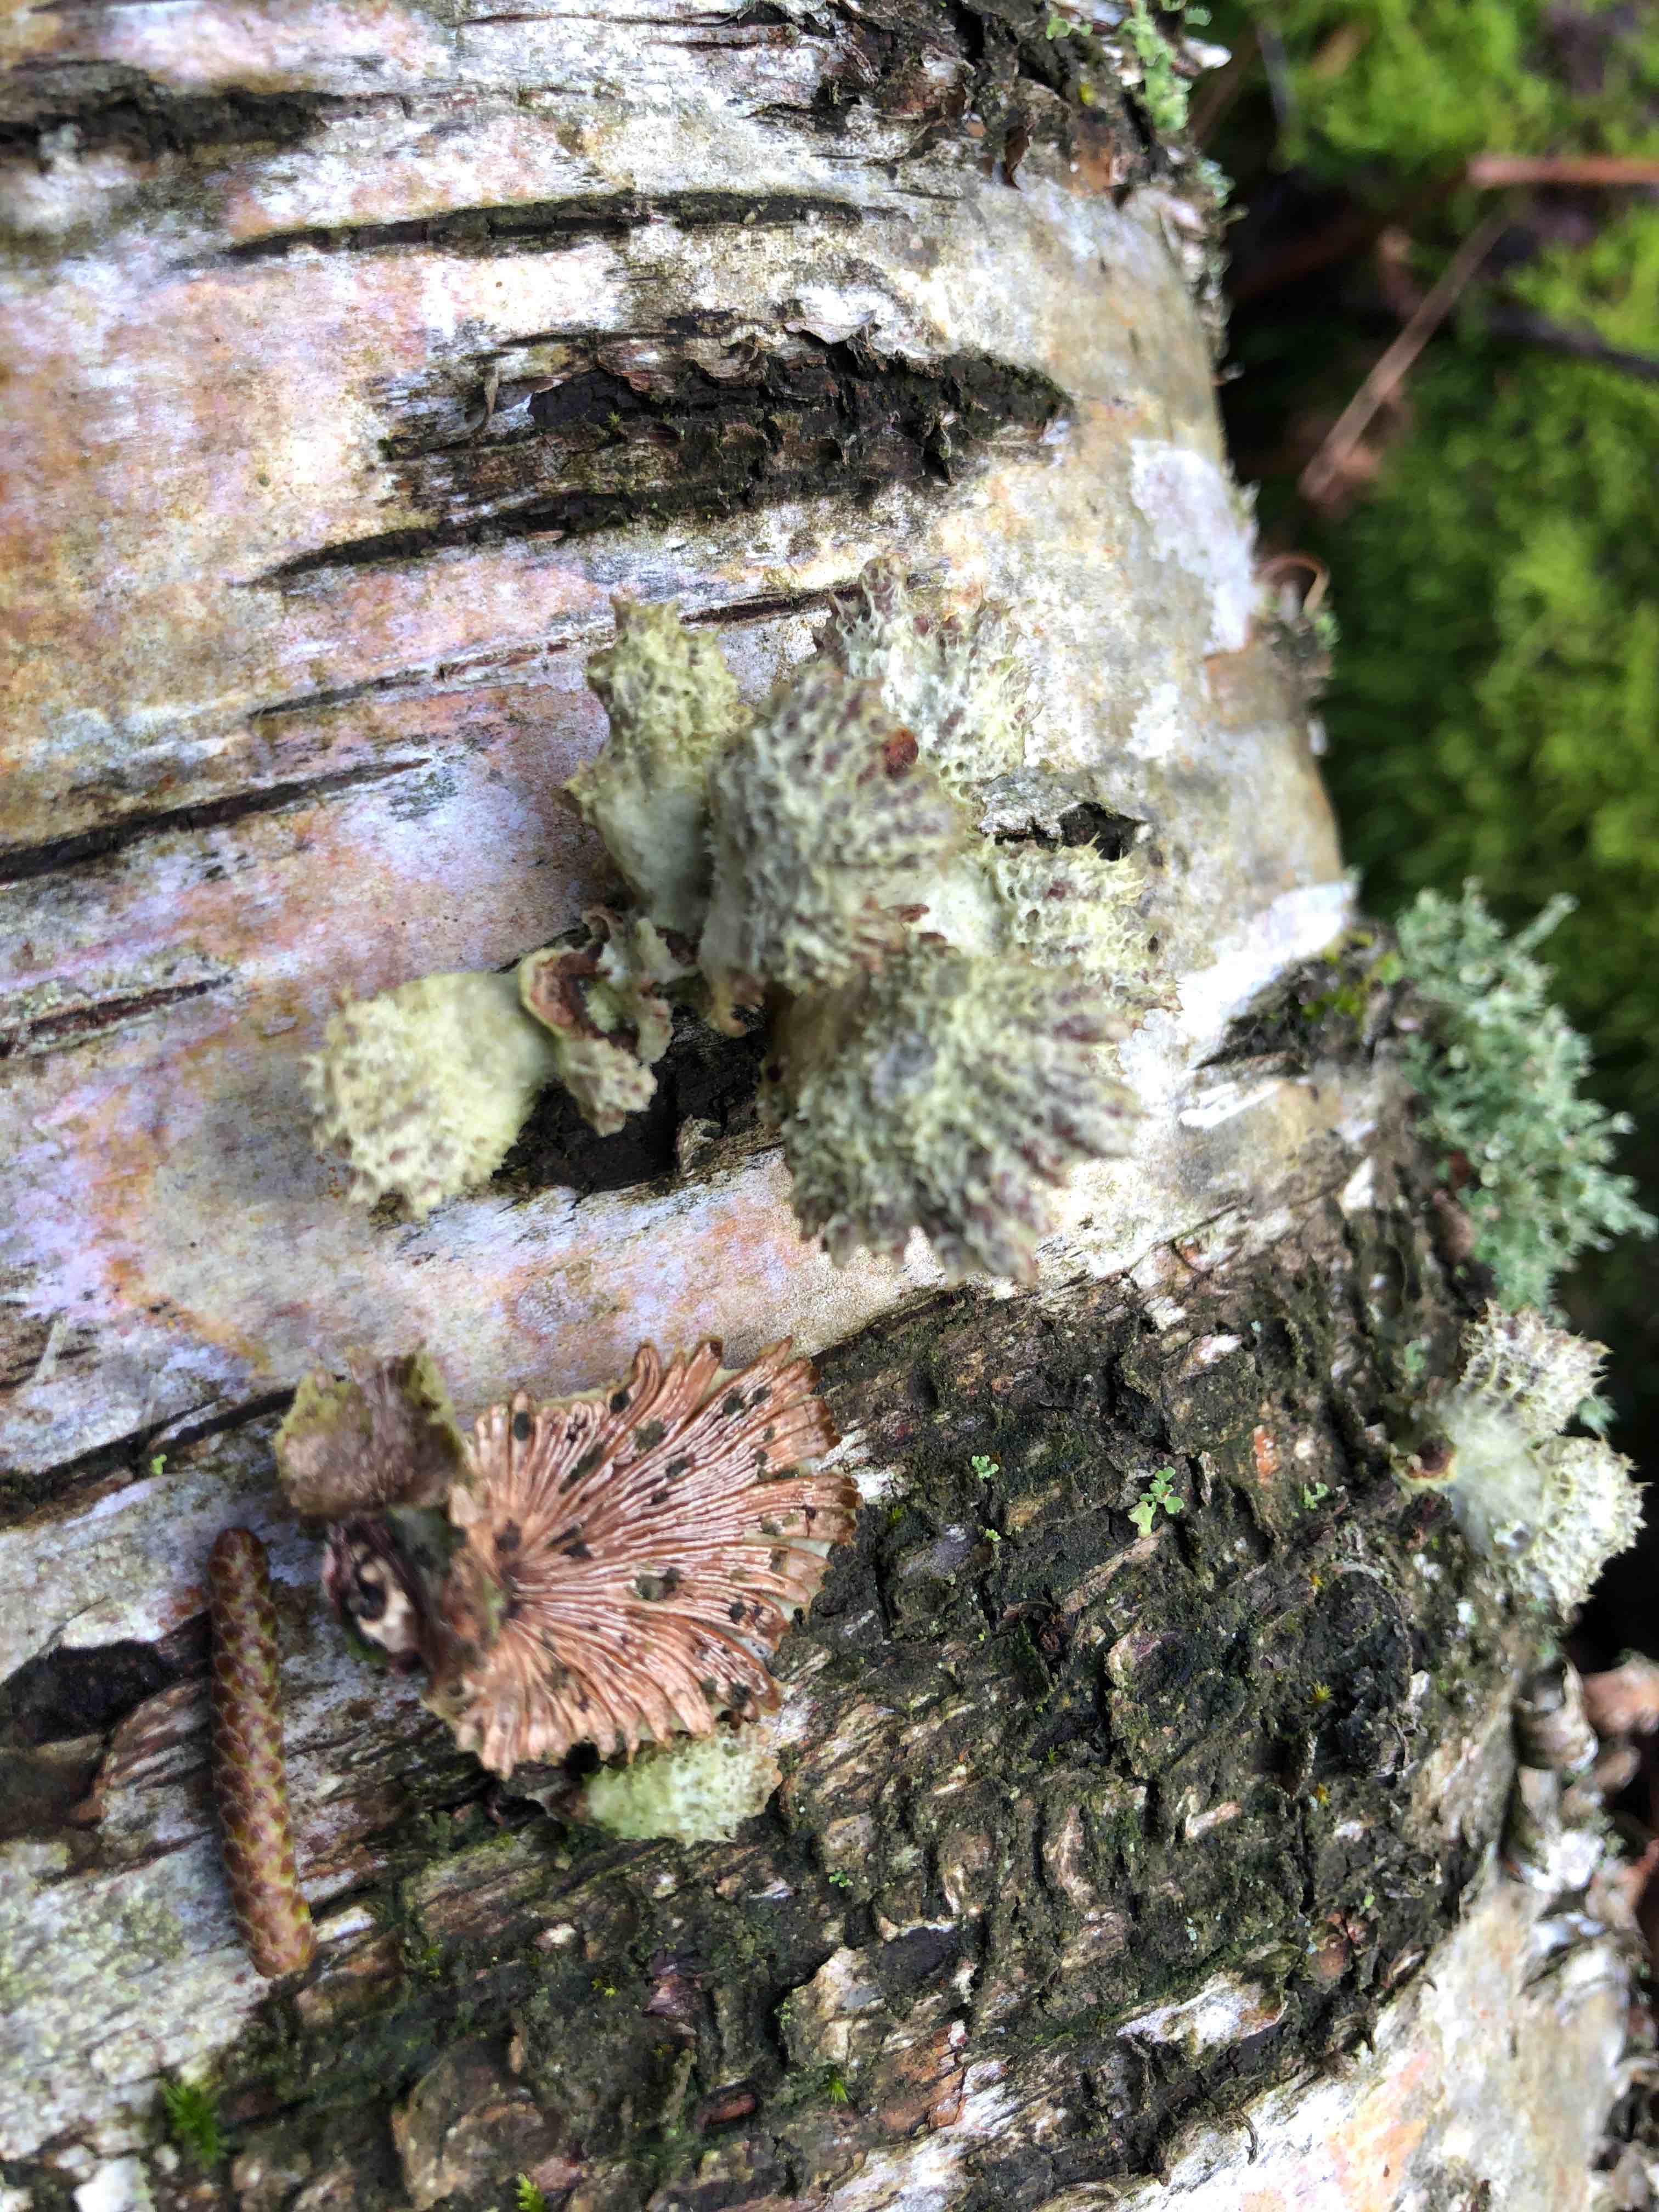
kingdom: Fungi
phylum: Basidiomycota
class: Agaricomycetes
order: Agaricales
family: Schizophyllaceae
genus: Schizophyllum
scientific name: Schizophyllum commune
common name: kløvblad
